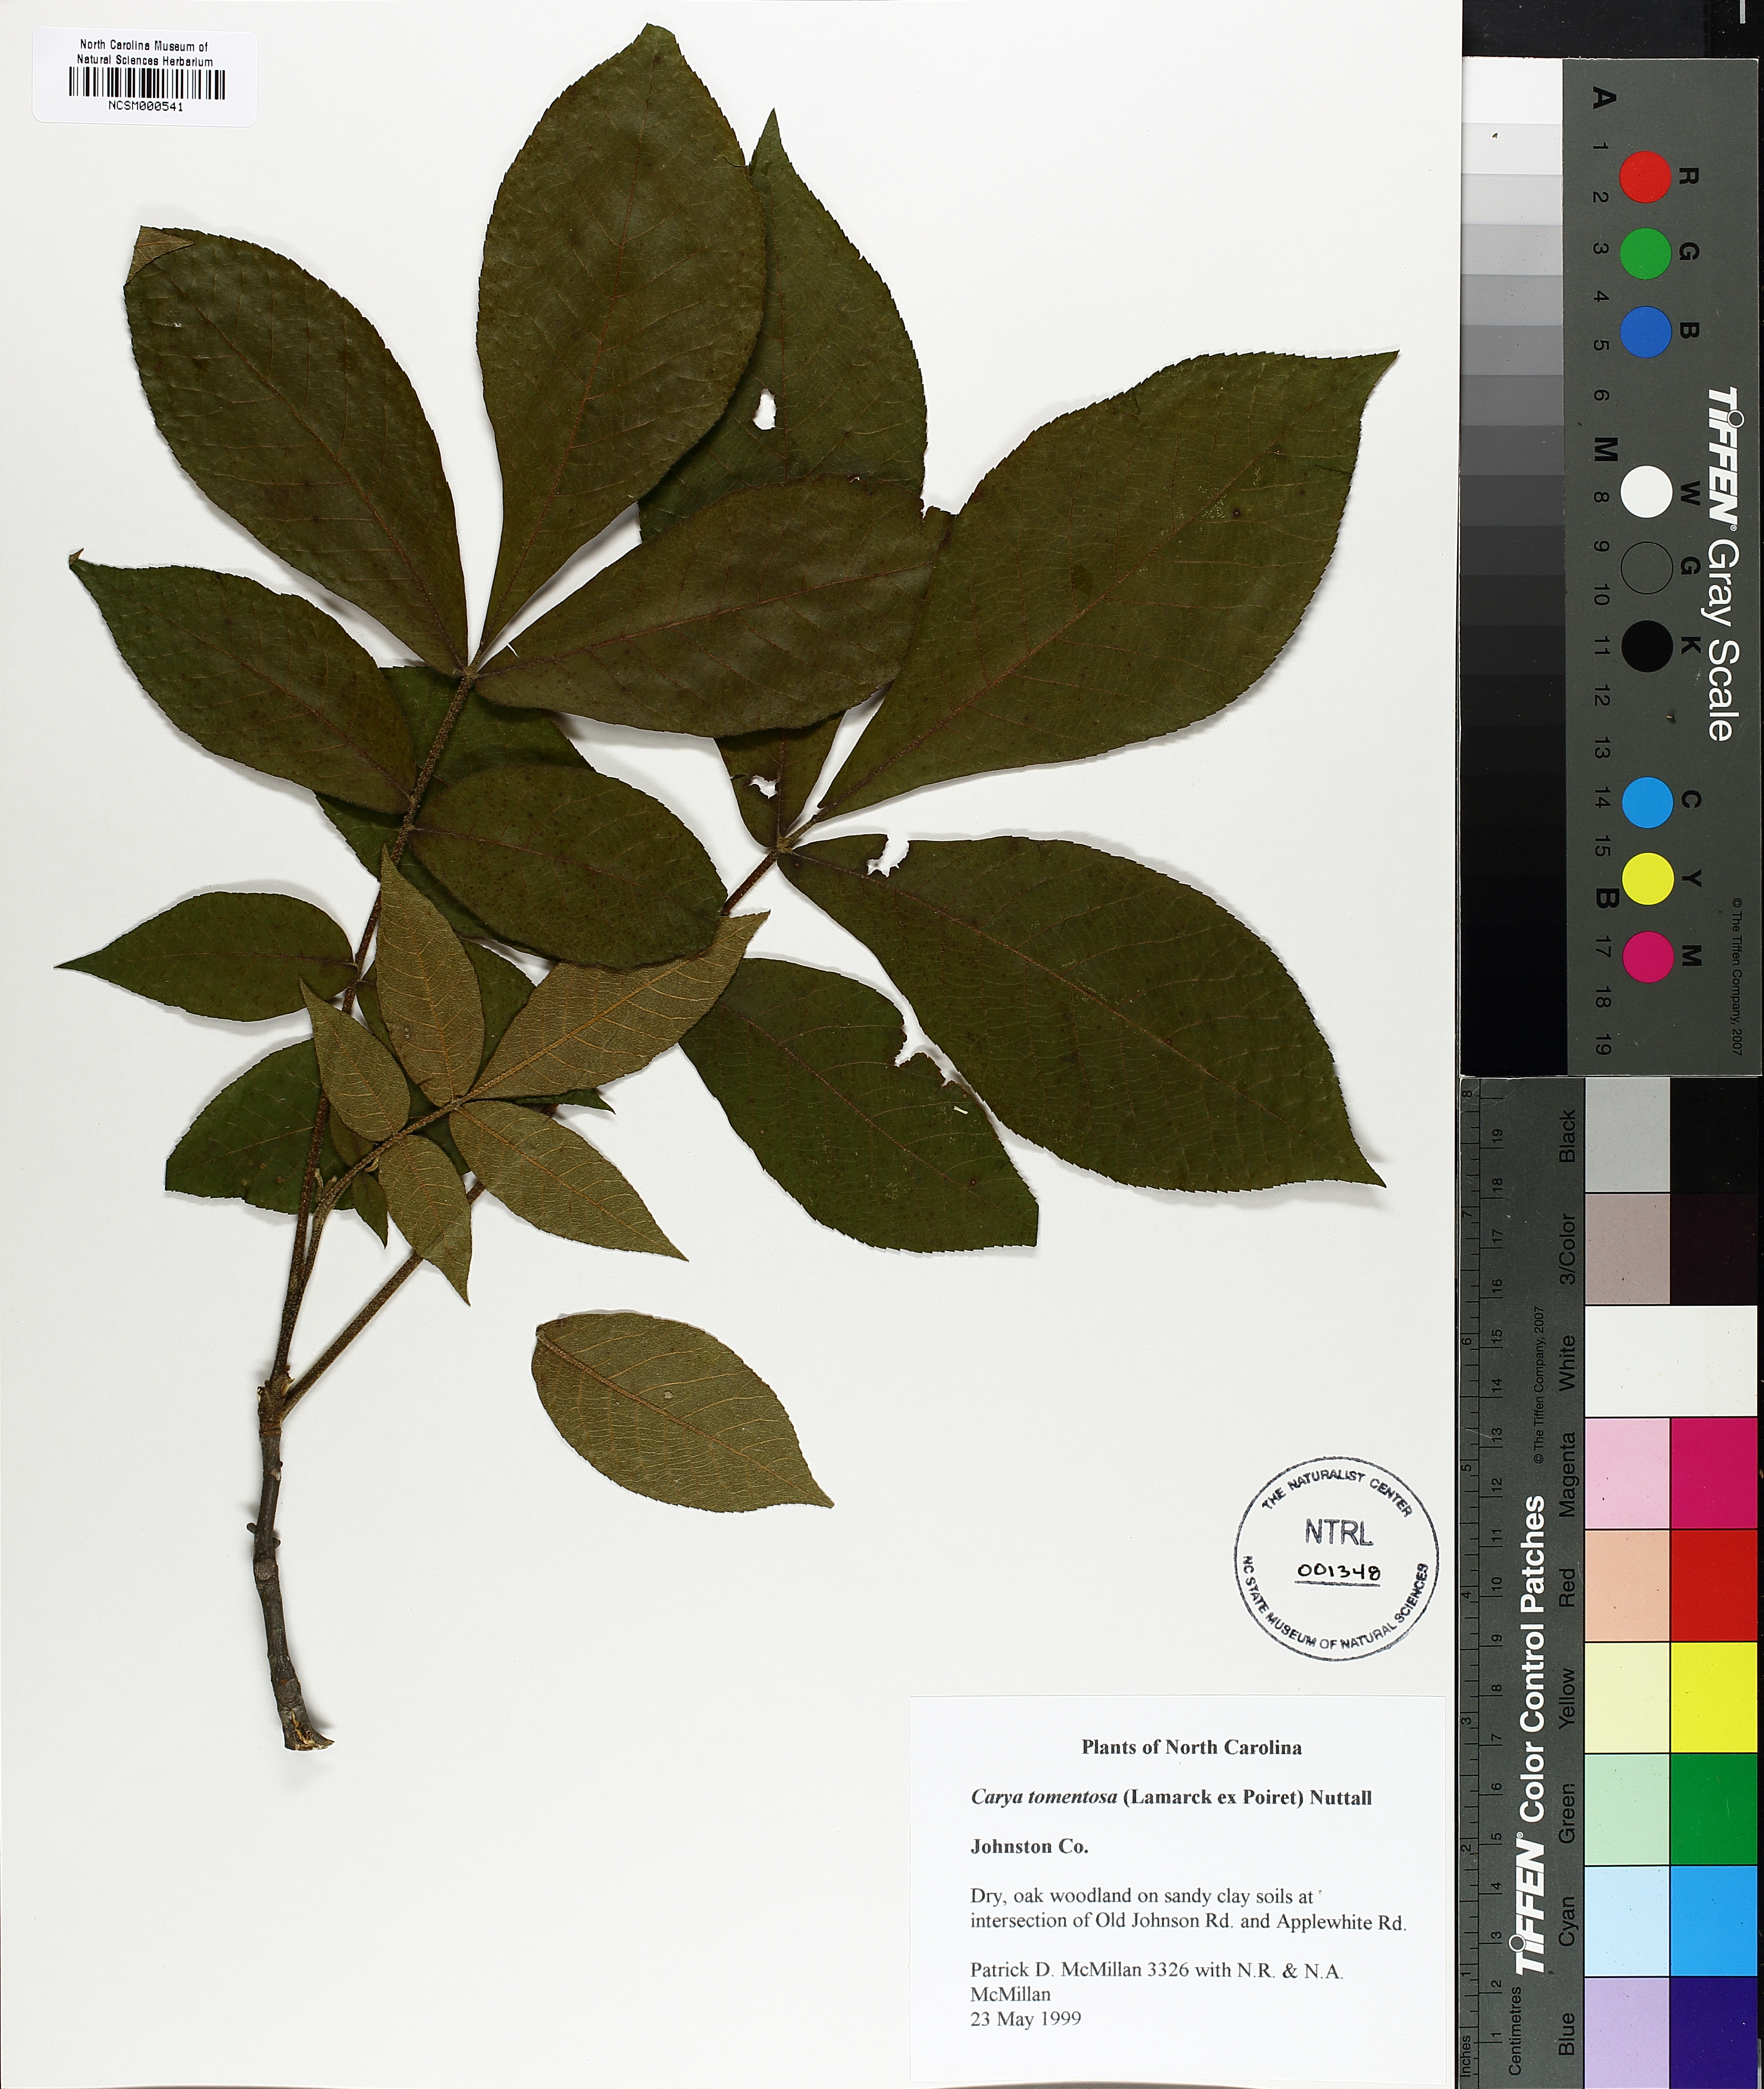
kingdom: Plantae
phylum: Tracheophyta
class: Magnoliopsida
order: Fagales
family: Juglandaceae
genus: Carya
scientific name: Carya alba
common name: Mockernut hickory
